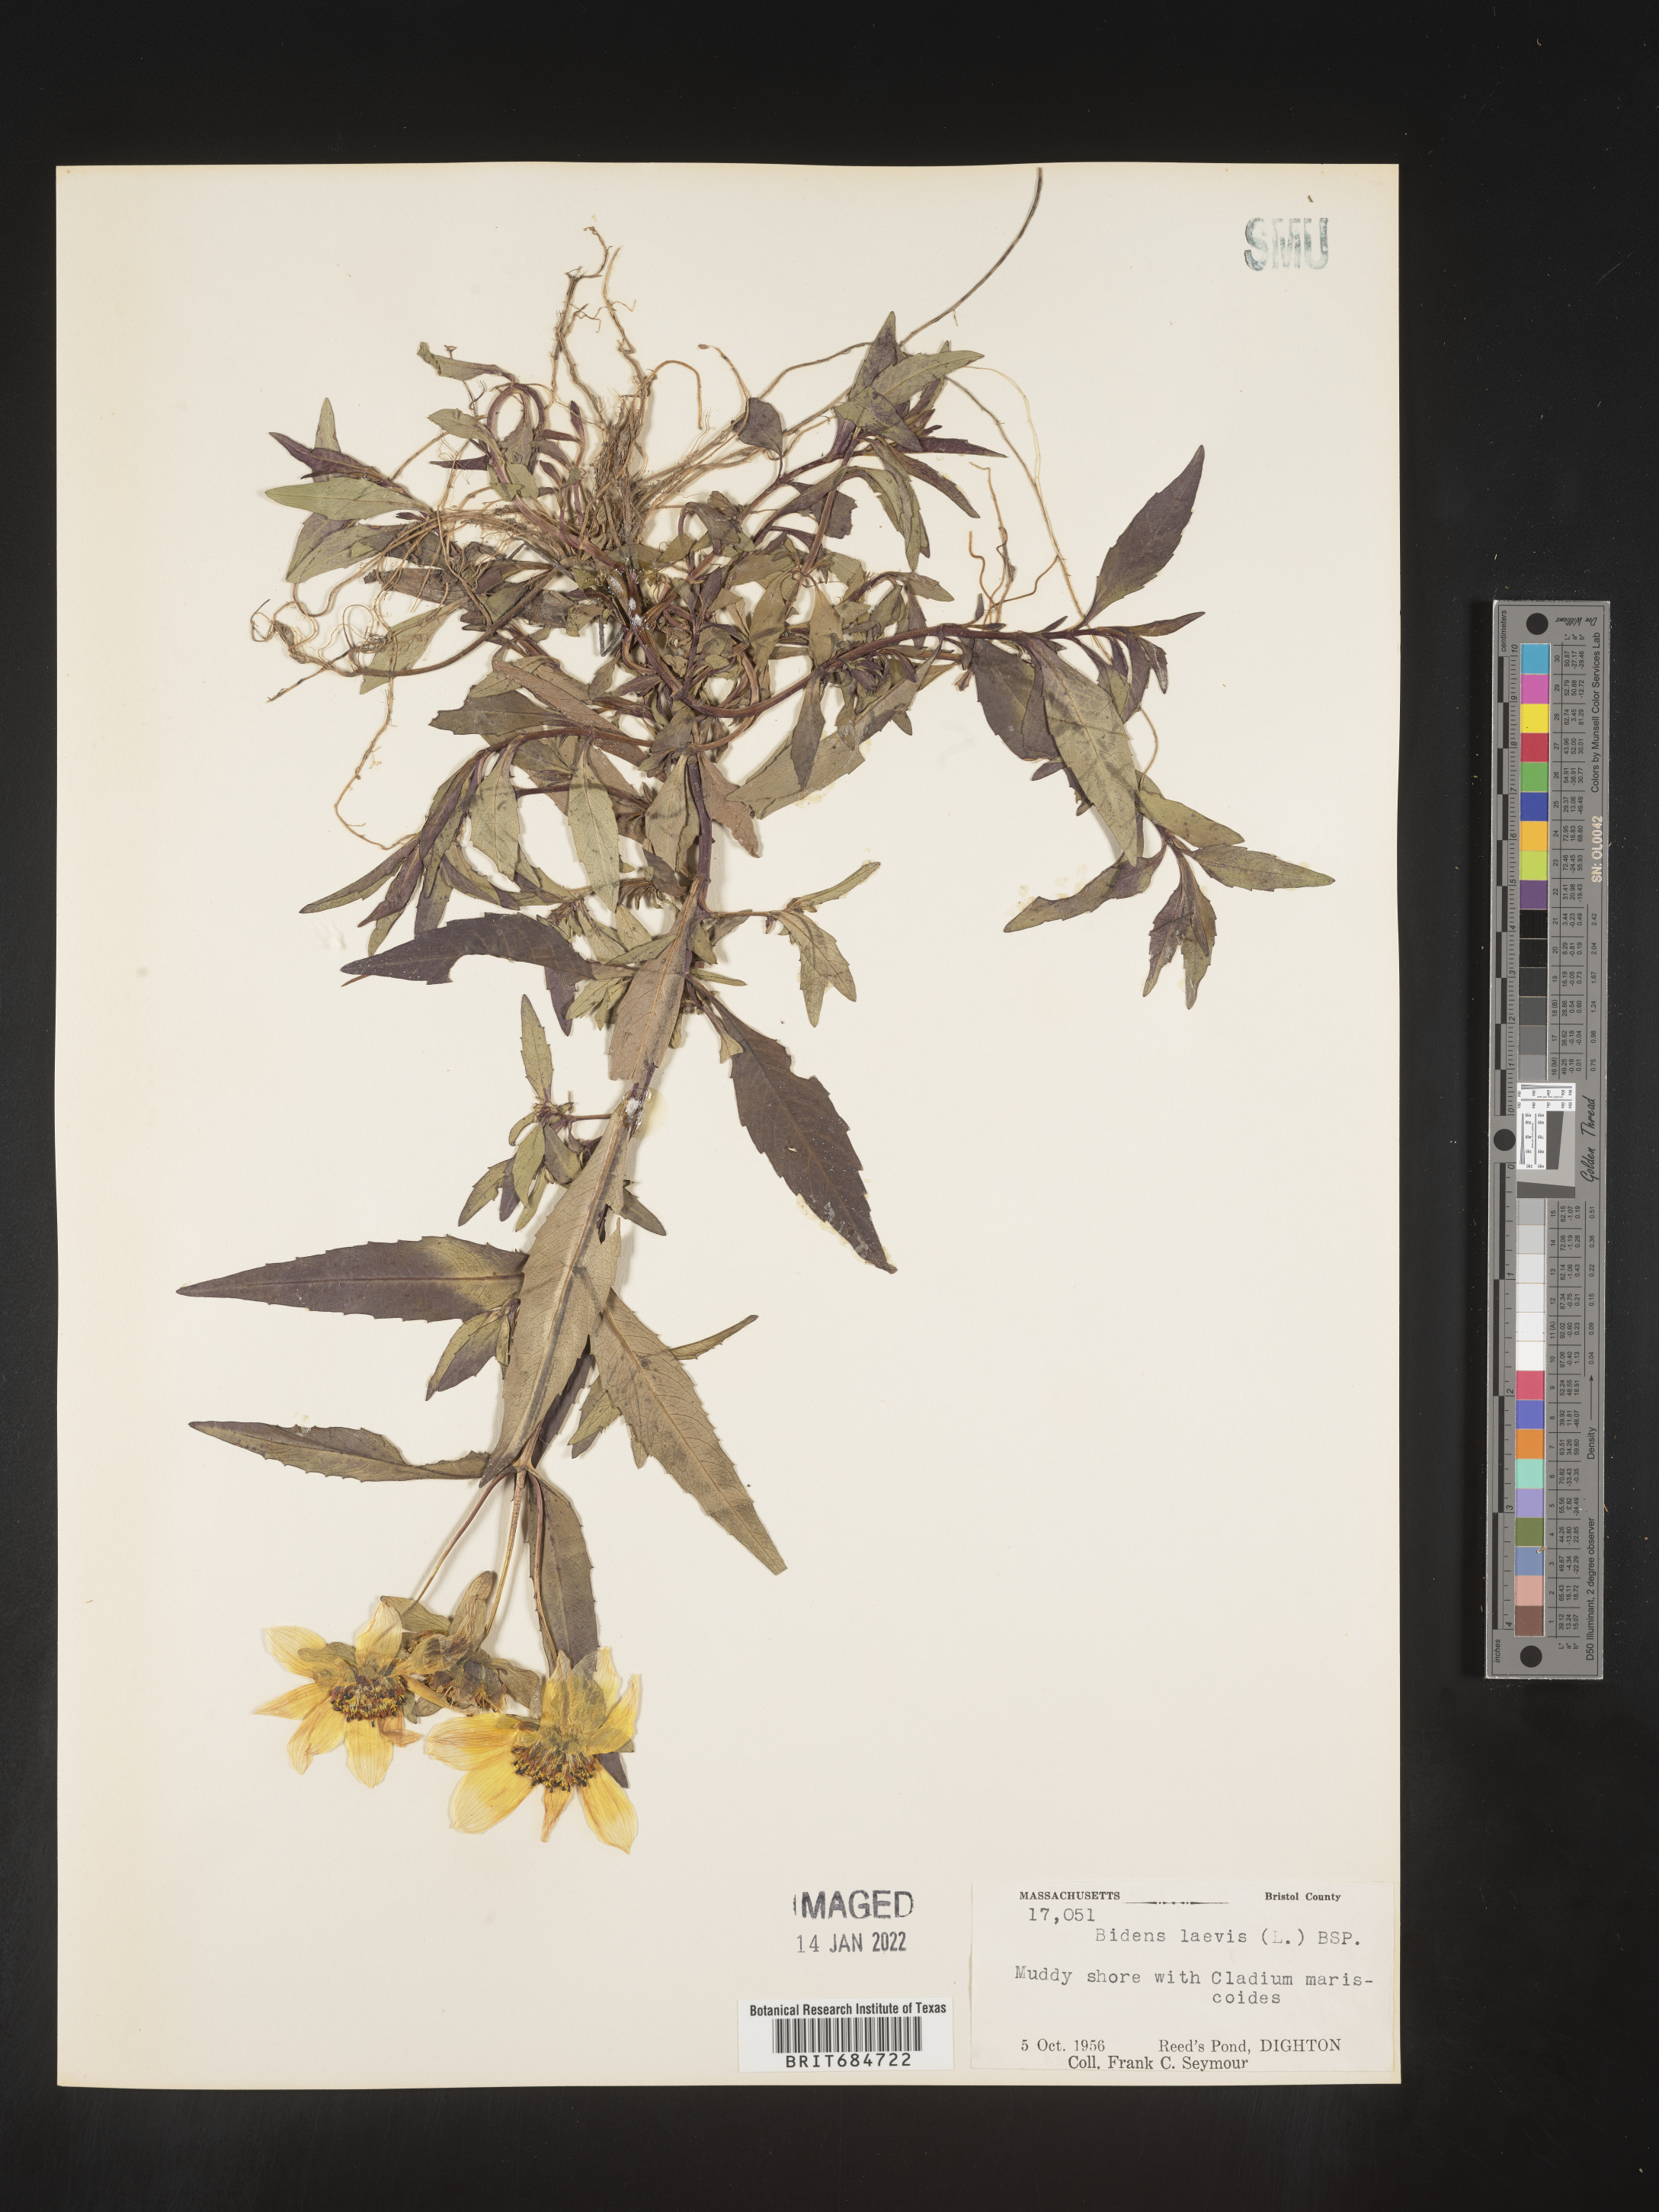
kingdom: Plantae
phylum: Tracheophyta
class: Magnoliopsida
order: Asterales
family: Asteraceae
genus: Bidens
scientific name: Bidens laevis
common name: Larger bur-marigold
